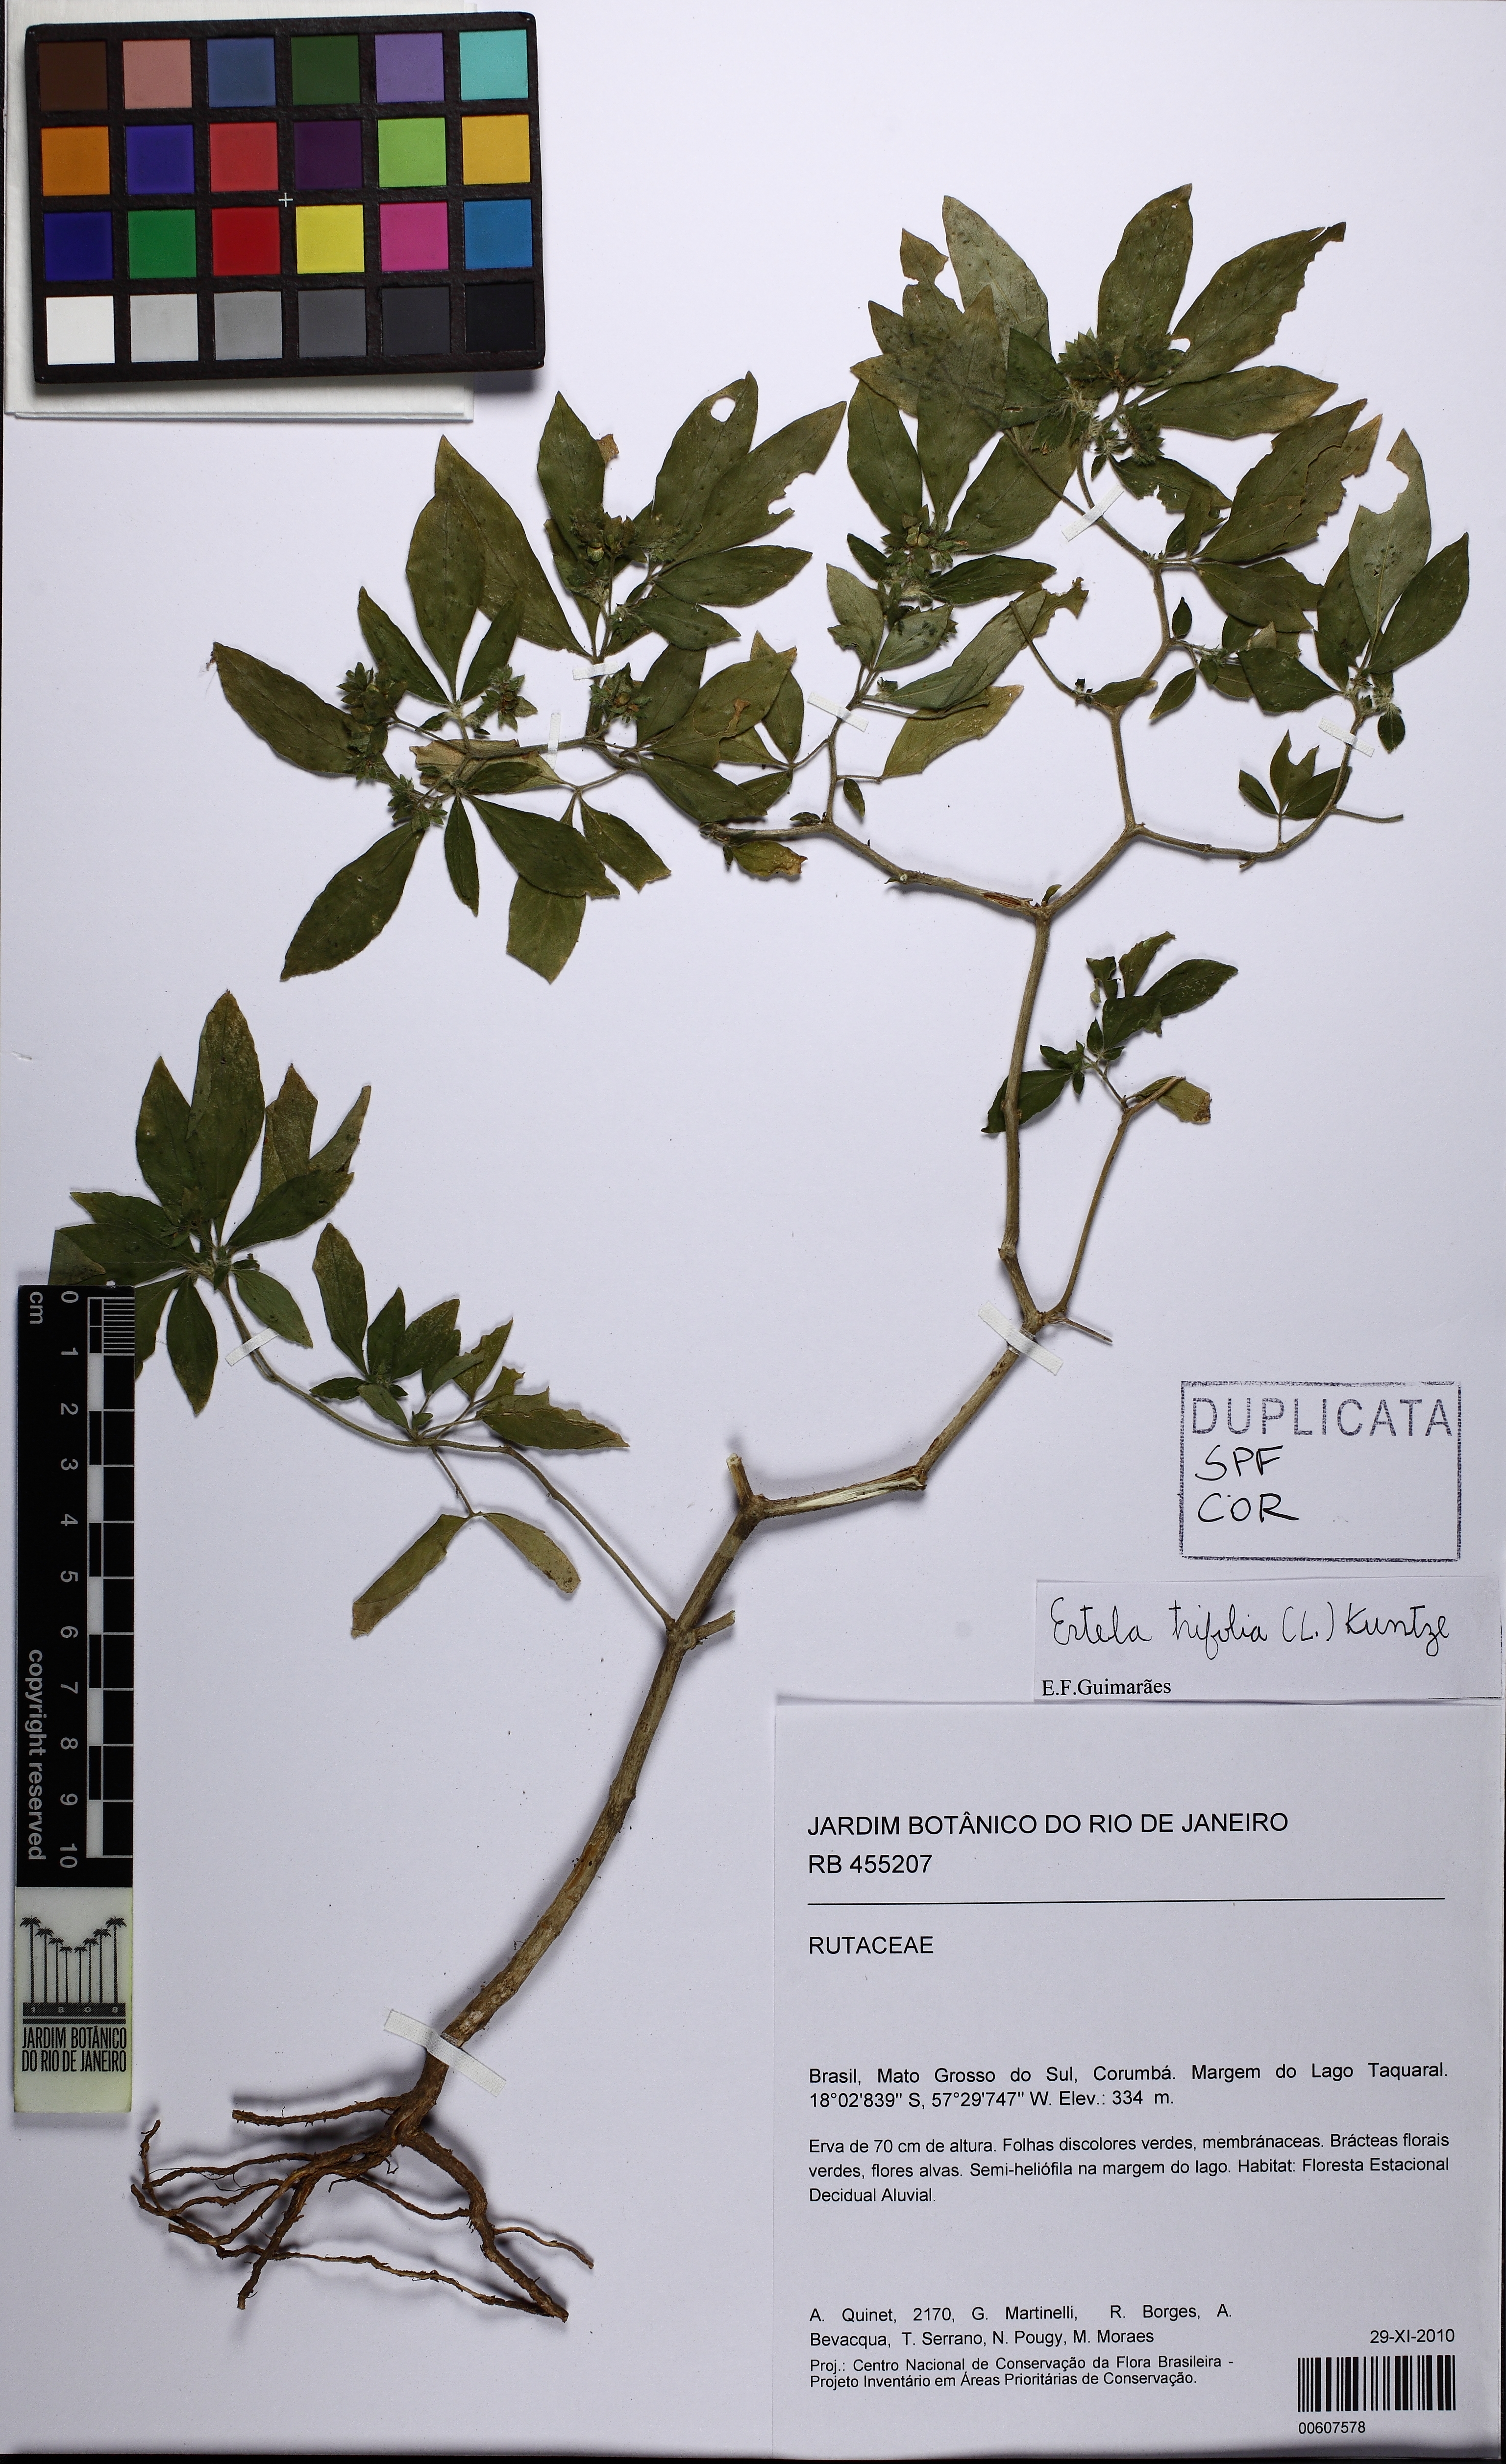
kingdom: Plantae
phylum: Tracheophyta
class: Magnoliopsida
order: Sapindales
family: Rutaceae
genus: Ertela
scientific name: Ertela trifolia
